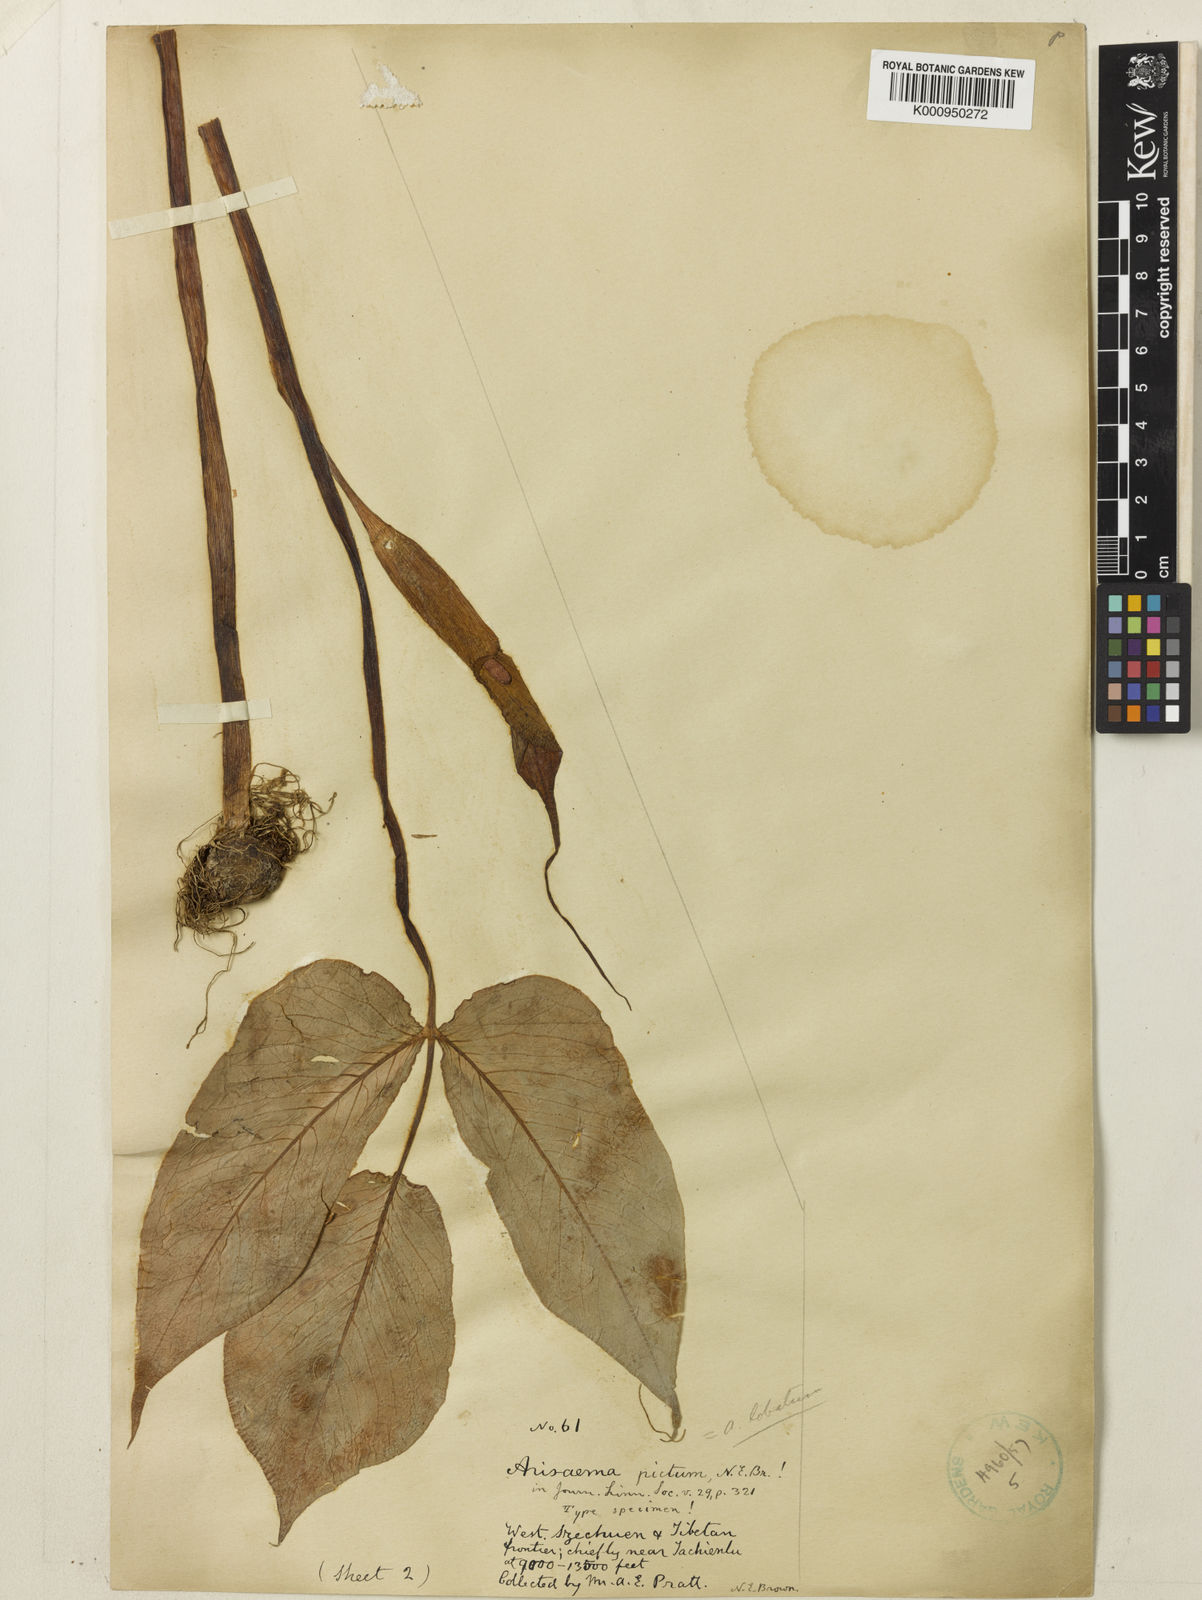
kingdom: Plantae
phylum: Tracheophyta
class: Liliopsida
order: Alismatales
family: Araceae
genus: Arisaema
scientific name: Arisaema lobatum
